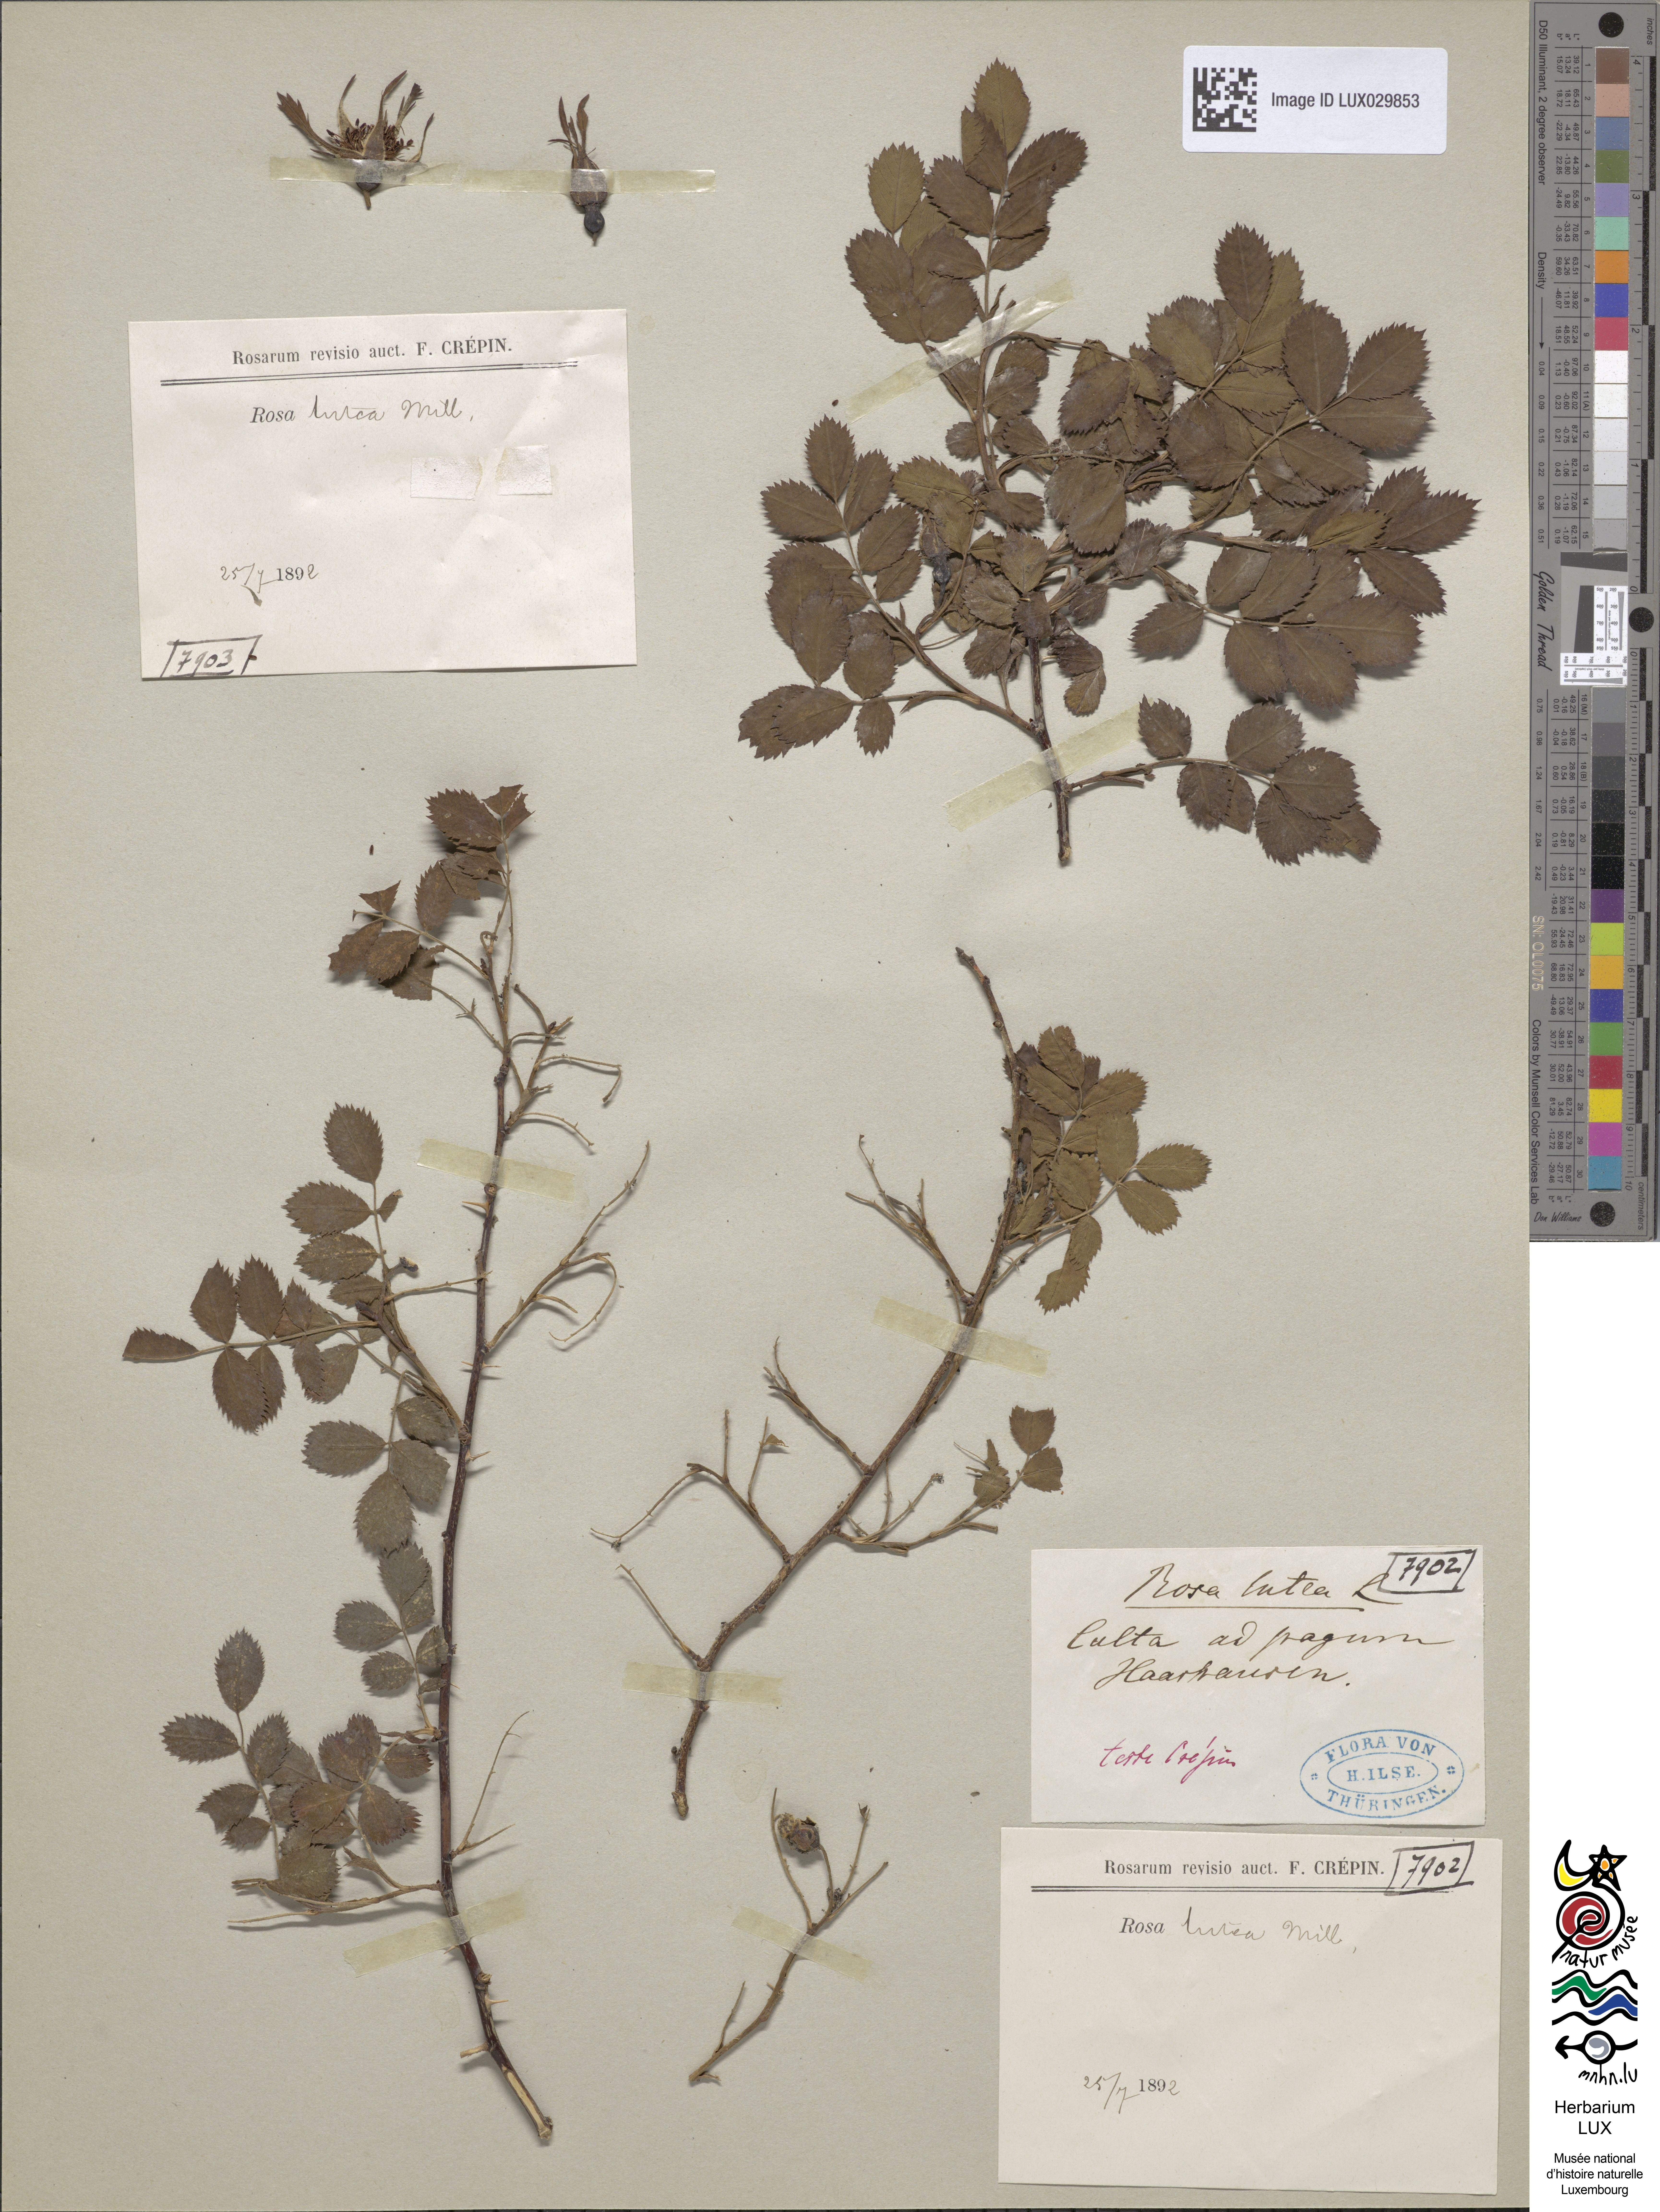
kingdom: Plantae
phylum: Tracheophyta
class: Magnoliopsida
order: Rosales
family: Rosaceae
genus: Rosa
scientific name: Rosa foetida
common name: Persian yellow rose
